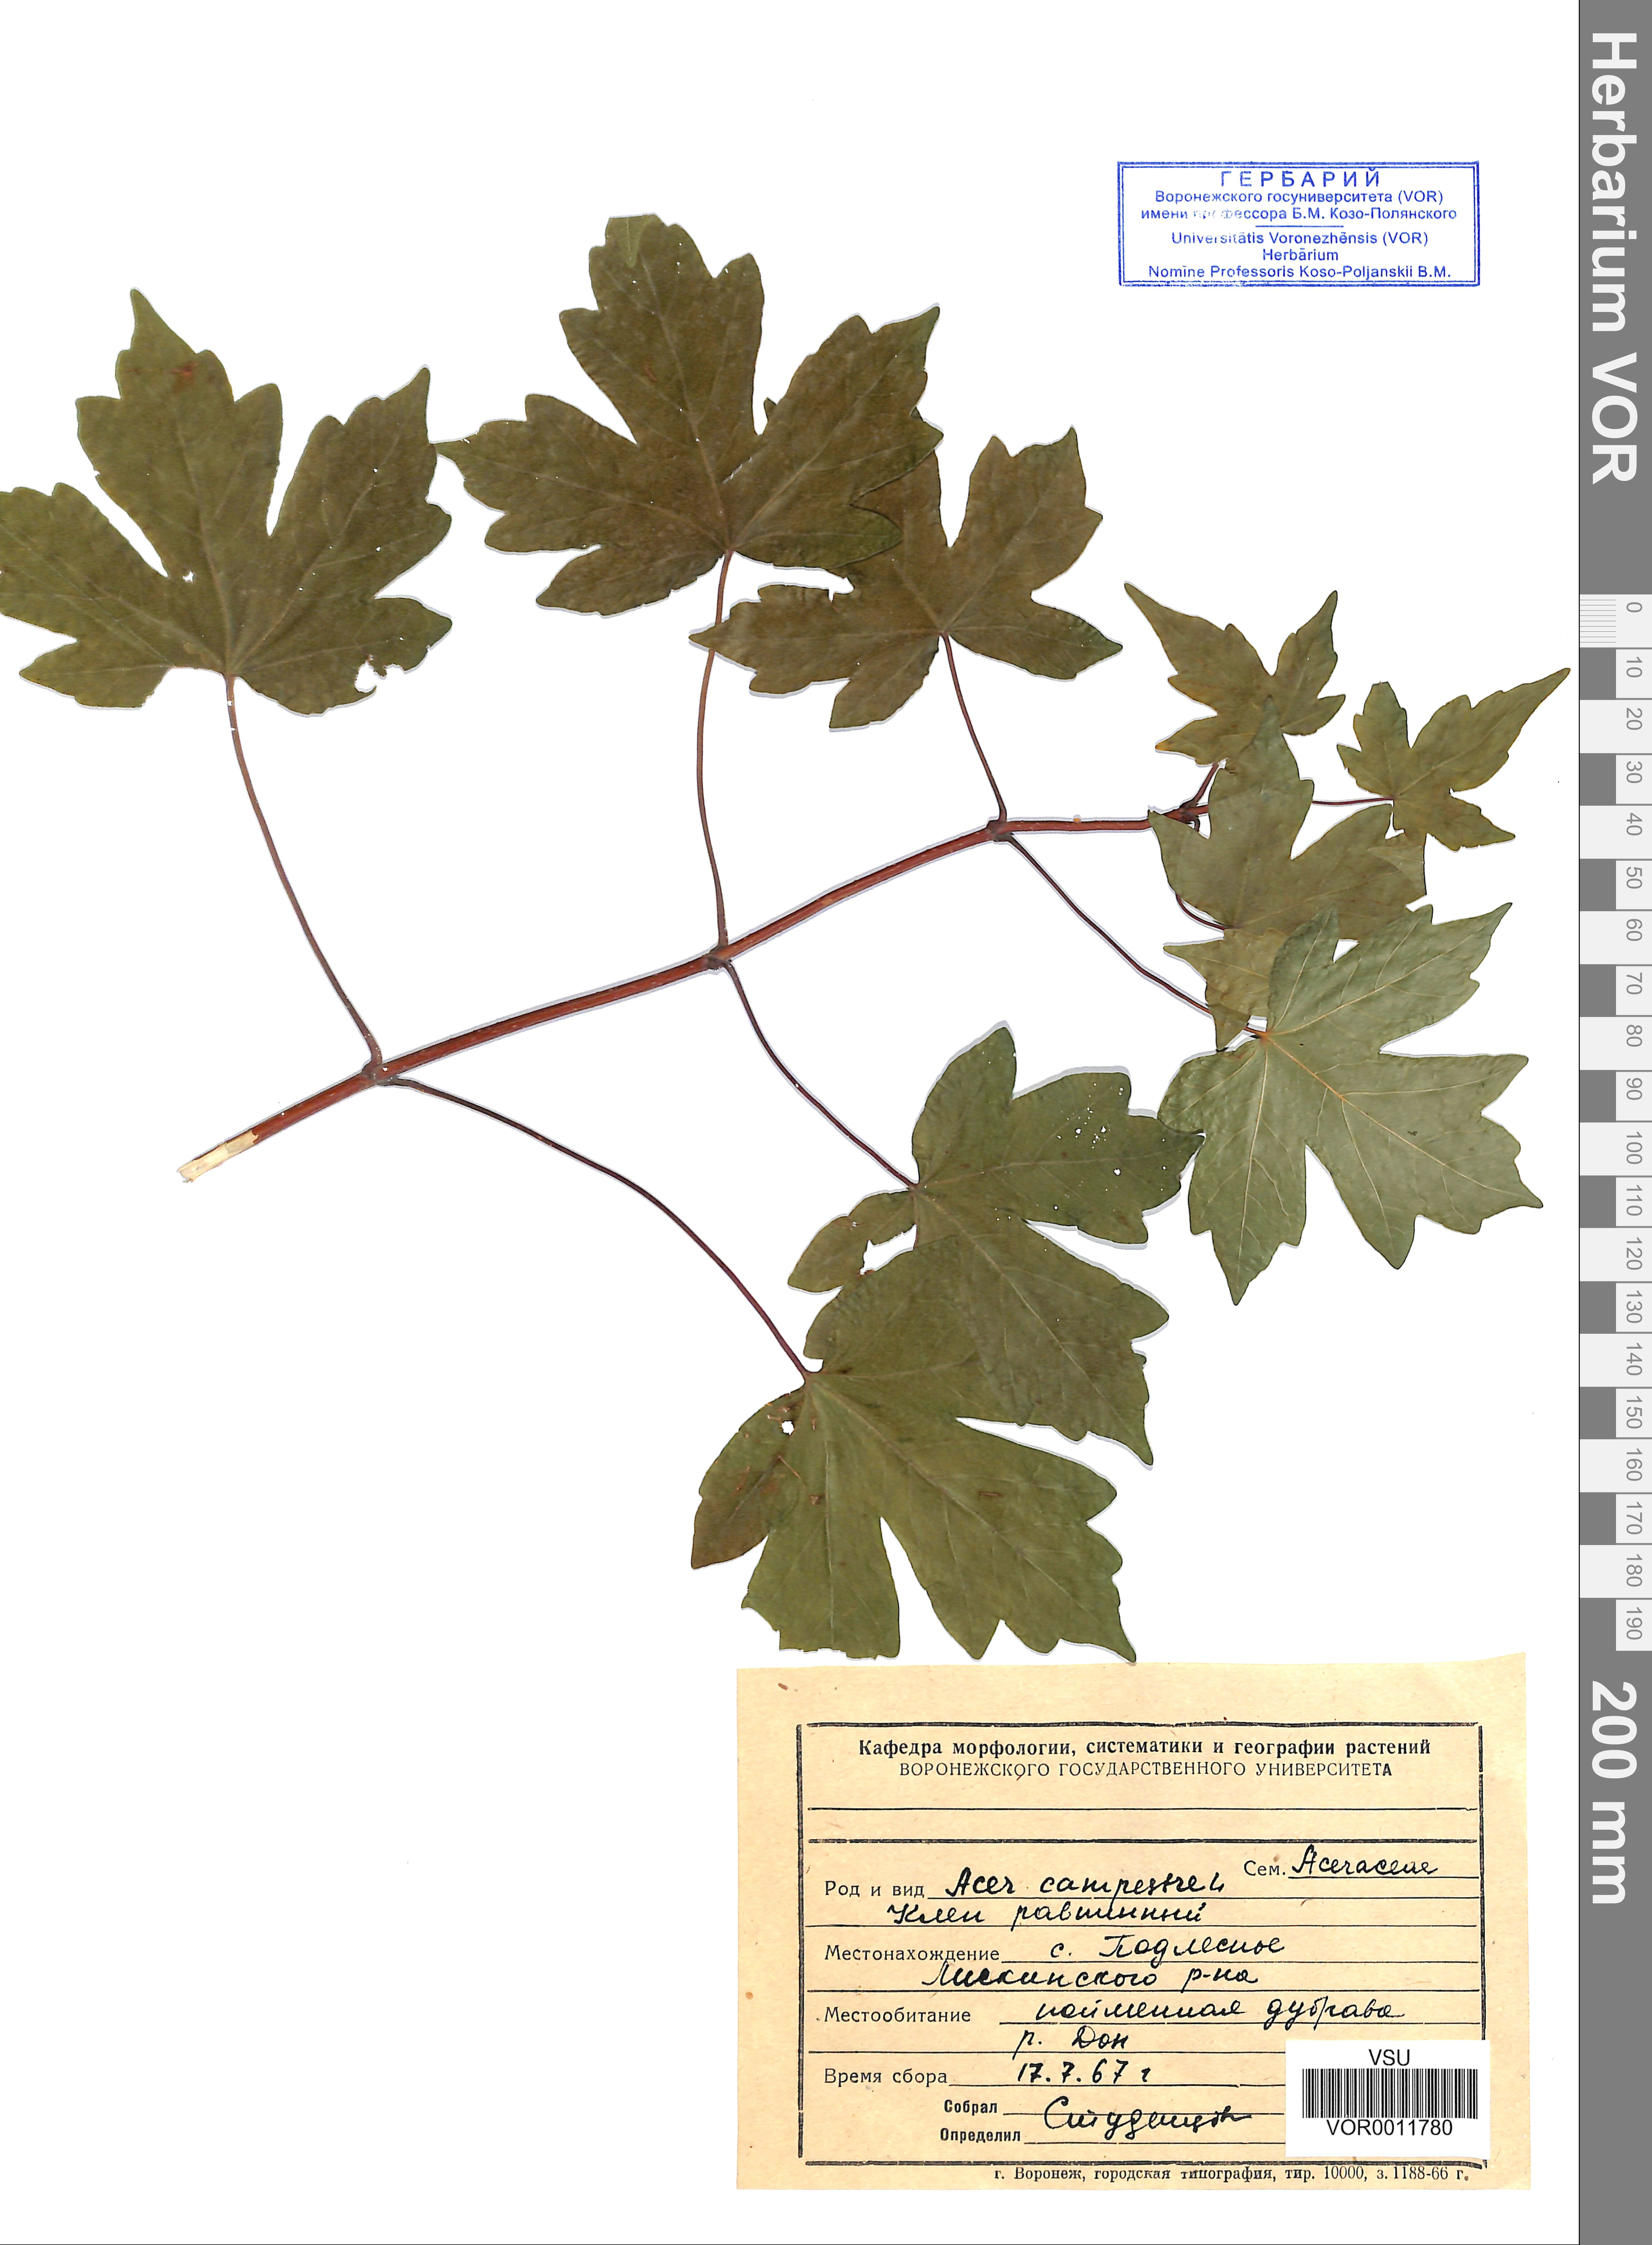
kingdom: Plantae
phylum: Tracheophyta
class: Magnoliopsida
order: Sapindales
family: Sapindaceae
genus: Acer
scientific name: Acer campestre
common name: Field maple
